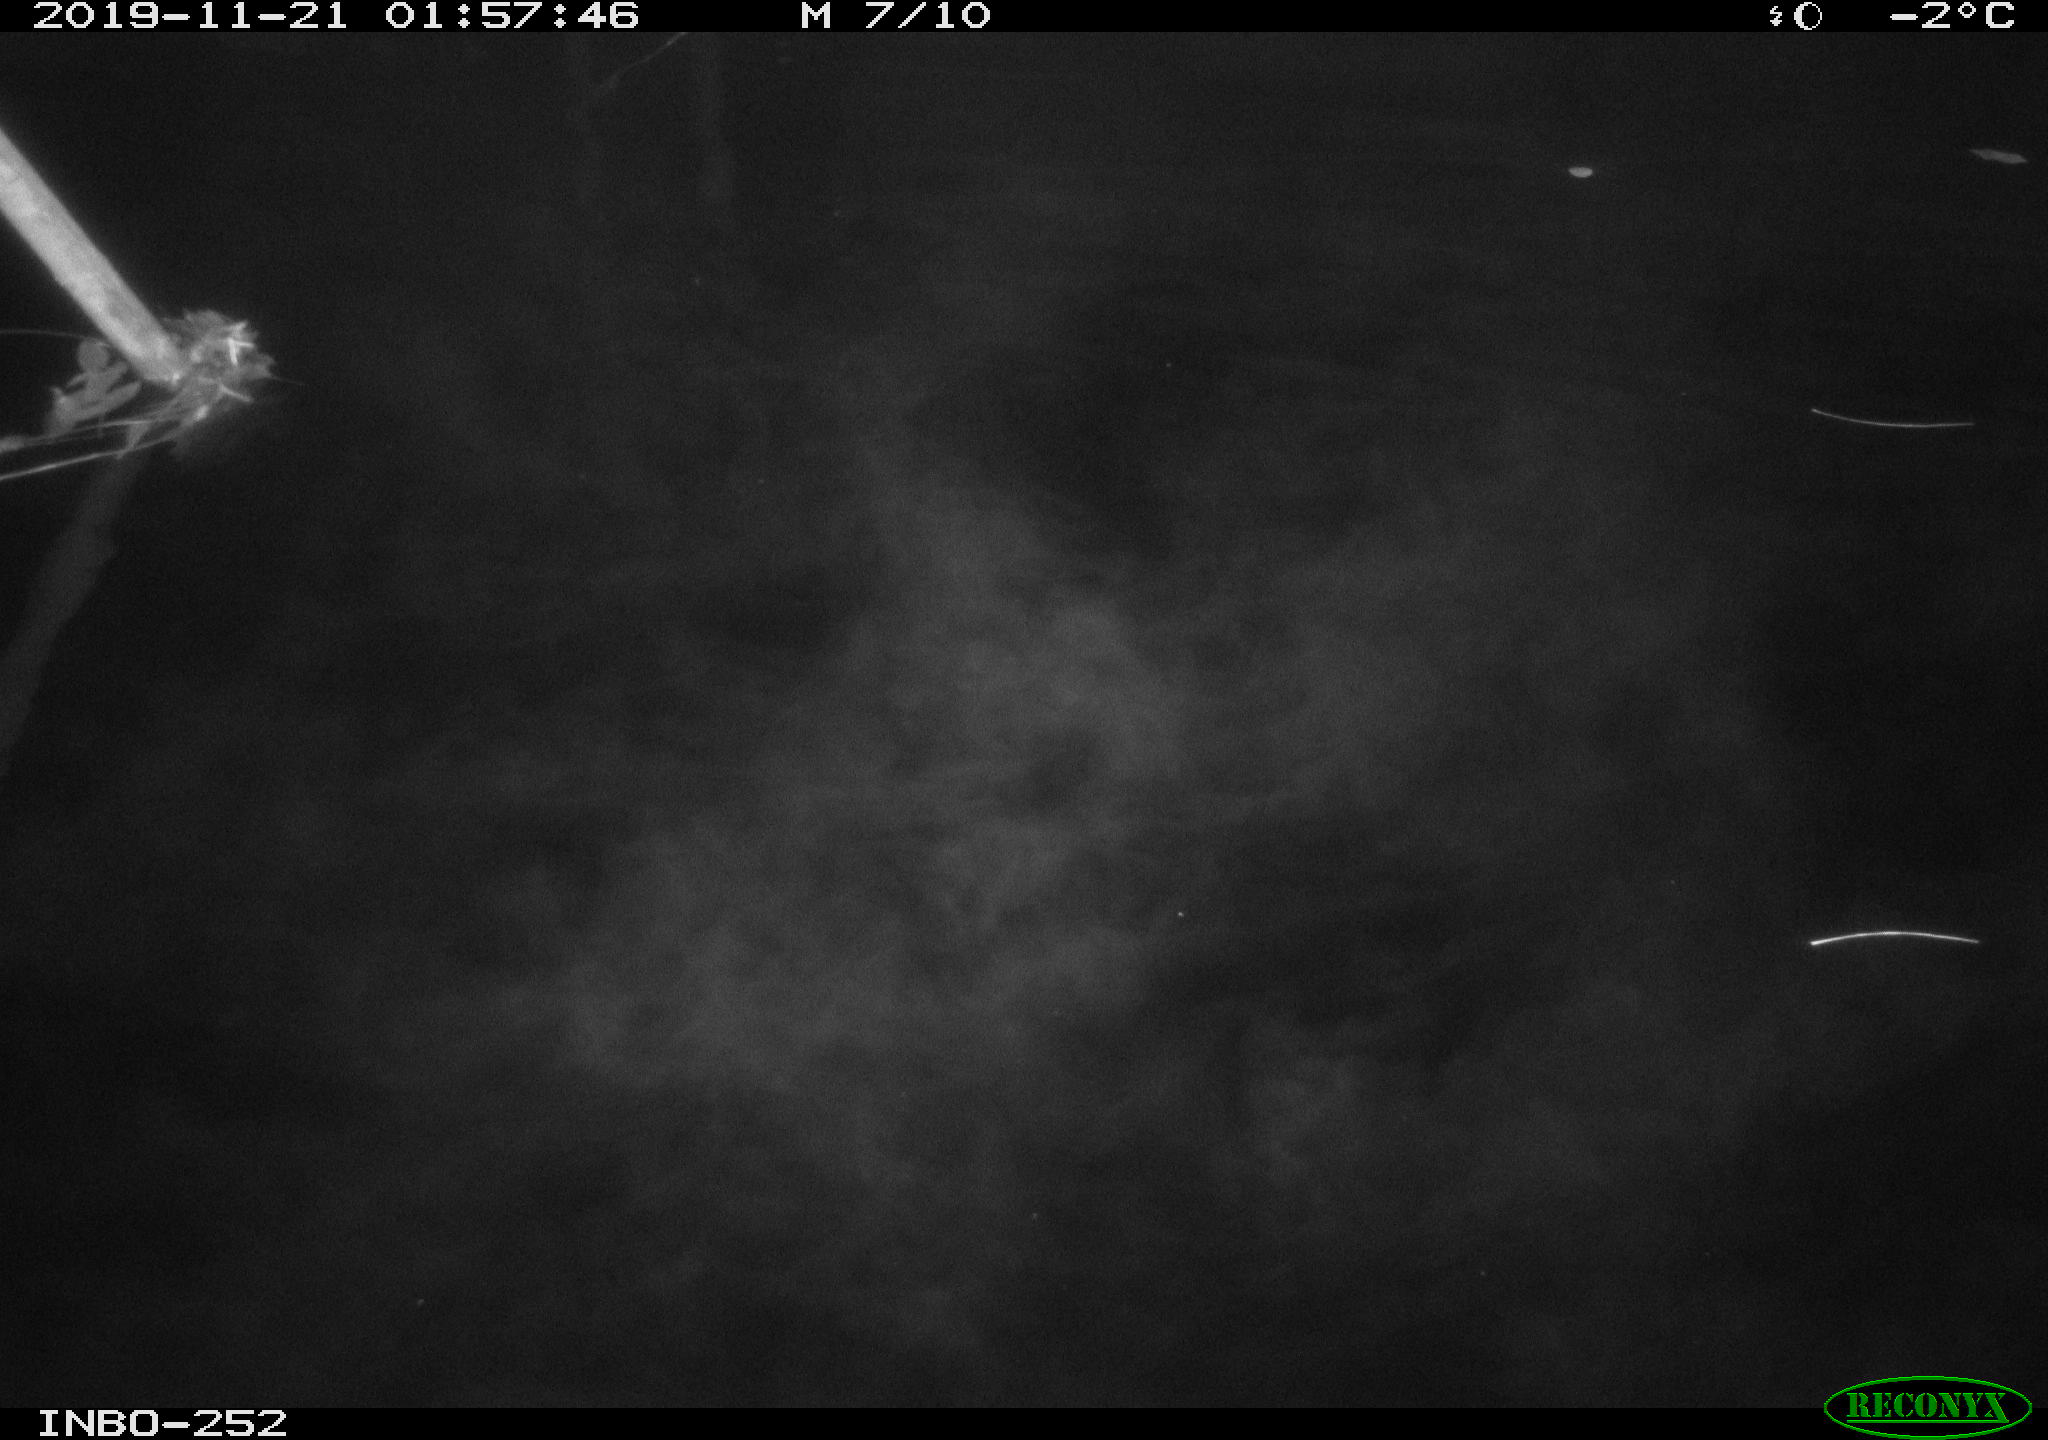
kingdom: Animalia
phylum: Chordata
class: Aves
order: Anseriformes
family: Anatidae
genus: Anas
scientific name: Anas platyrhynchos
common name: Mallard
